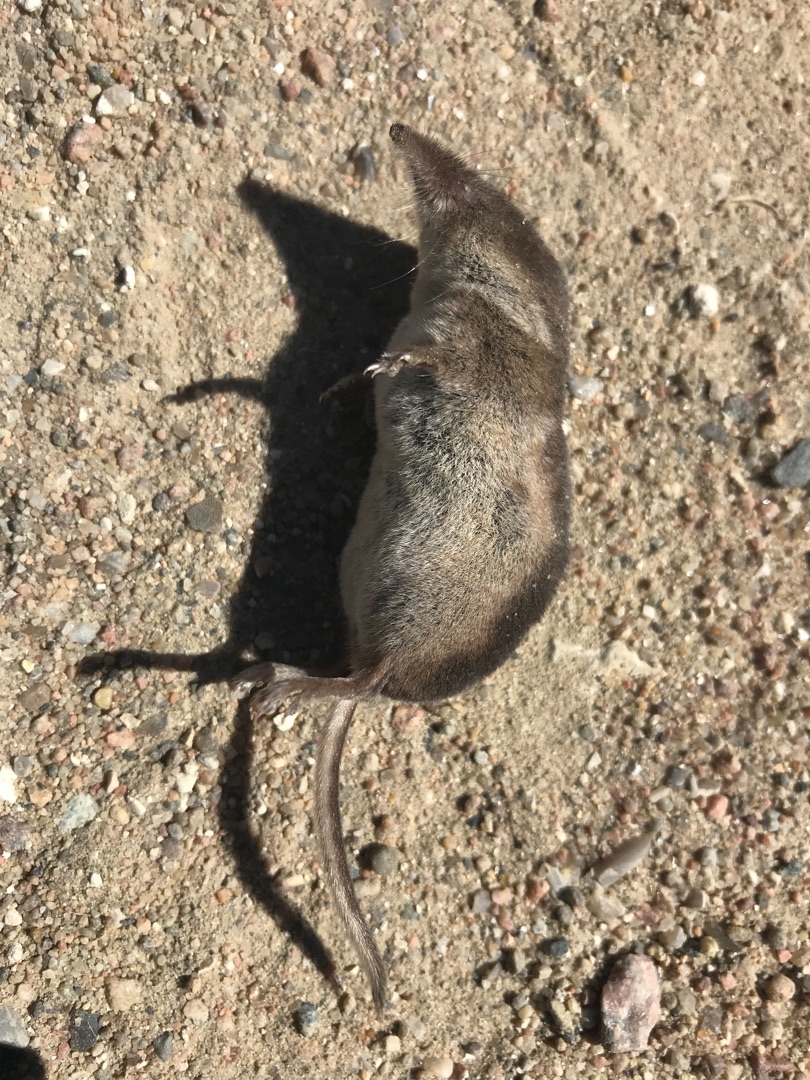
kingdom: Animalia
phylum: Chordata
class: Mammalia
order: Soricomorpha
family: Soricidae
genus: Sorex
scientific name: Sorex araneus
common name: Almindelig spidsmus
